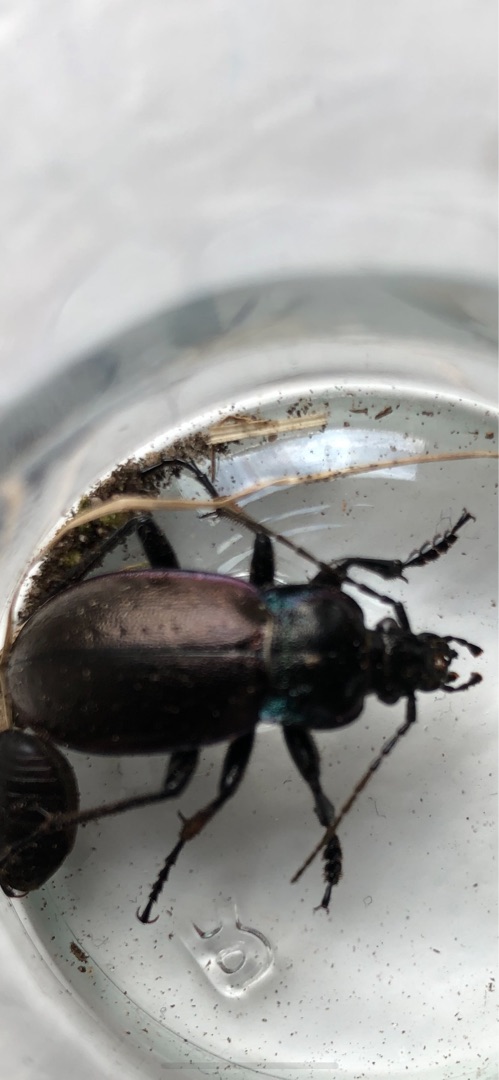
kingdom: Animalia
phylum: Arthropoda
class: Insecta
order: Coleoptera
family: Carabidae
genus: Carabus
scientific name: Carabus nemoralis
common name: Kratløber
